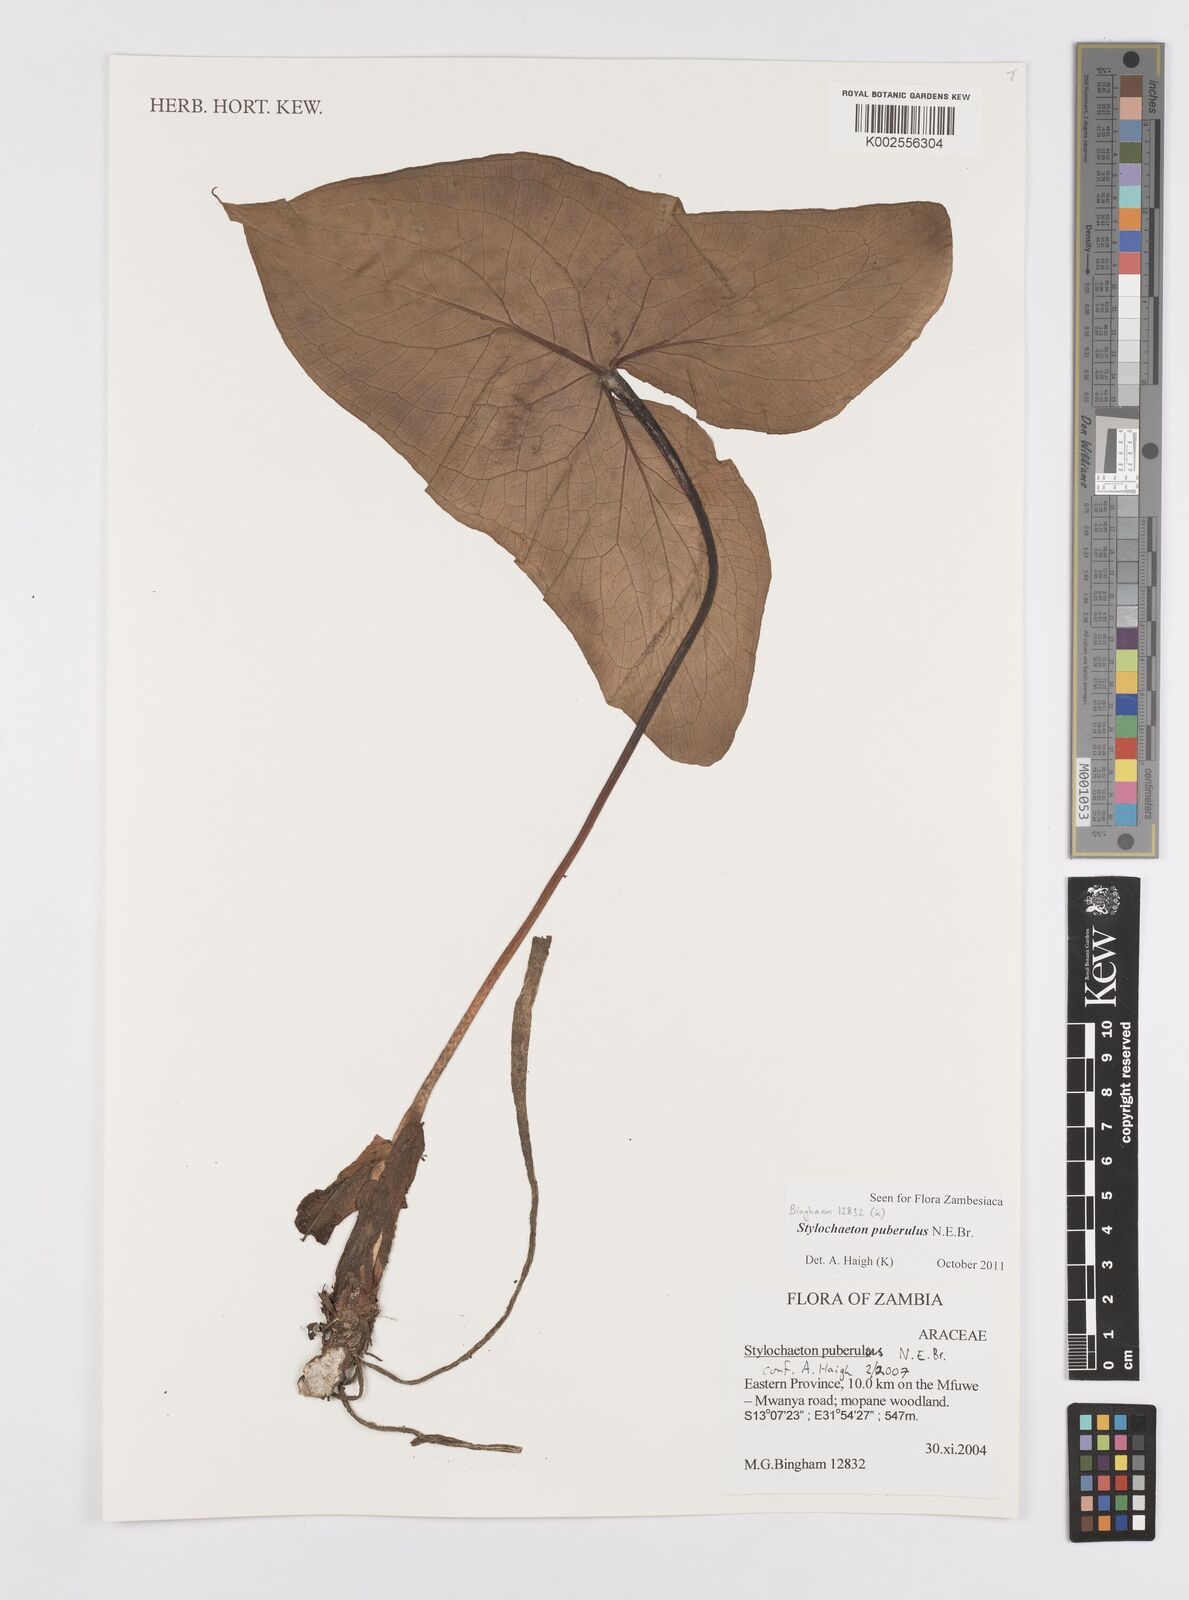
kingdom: Plantae
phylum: Tracheophyta
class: Liliopsida
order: Alismatales
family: Araceae
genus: Stylochaeton
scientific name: Stylochaeton puberulum
